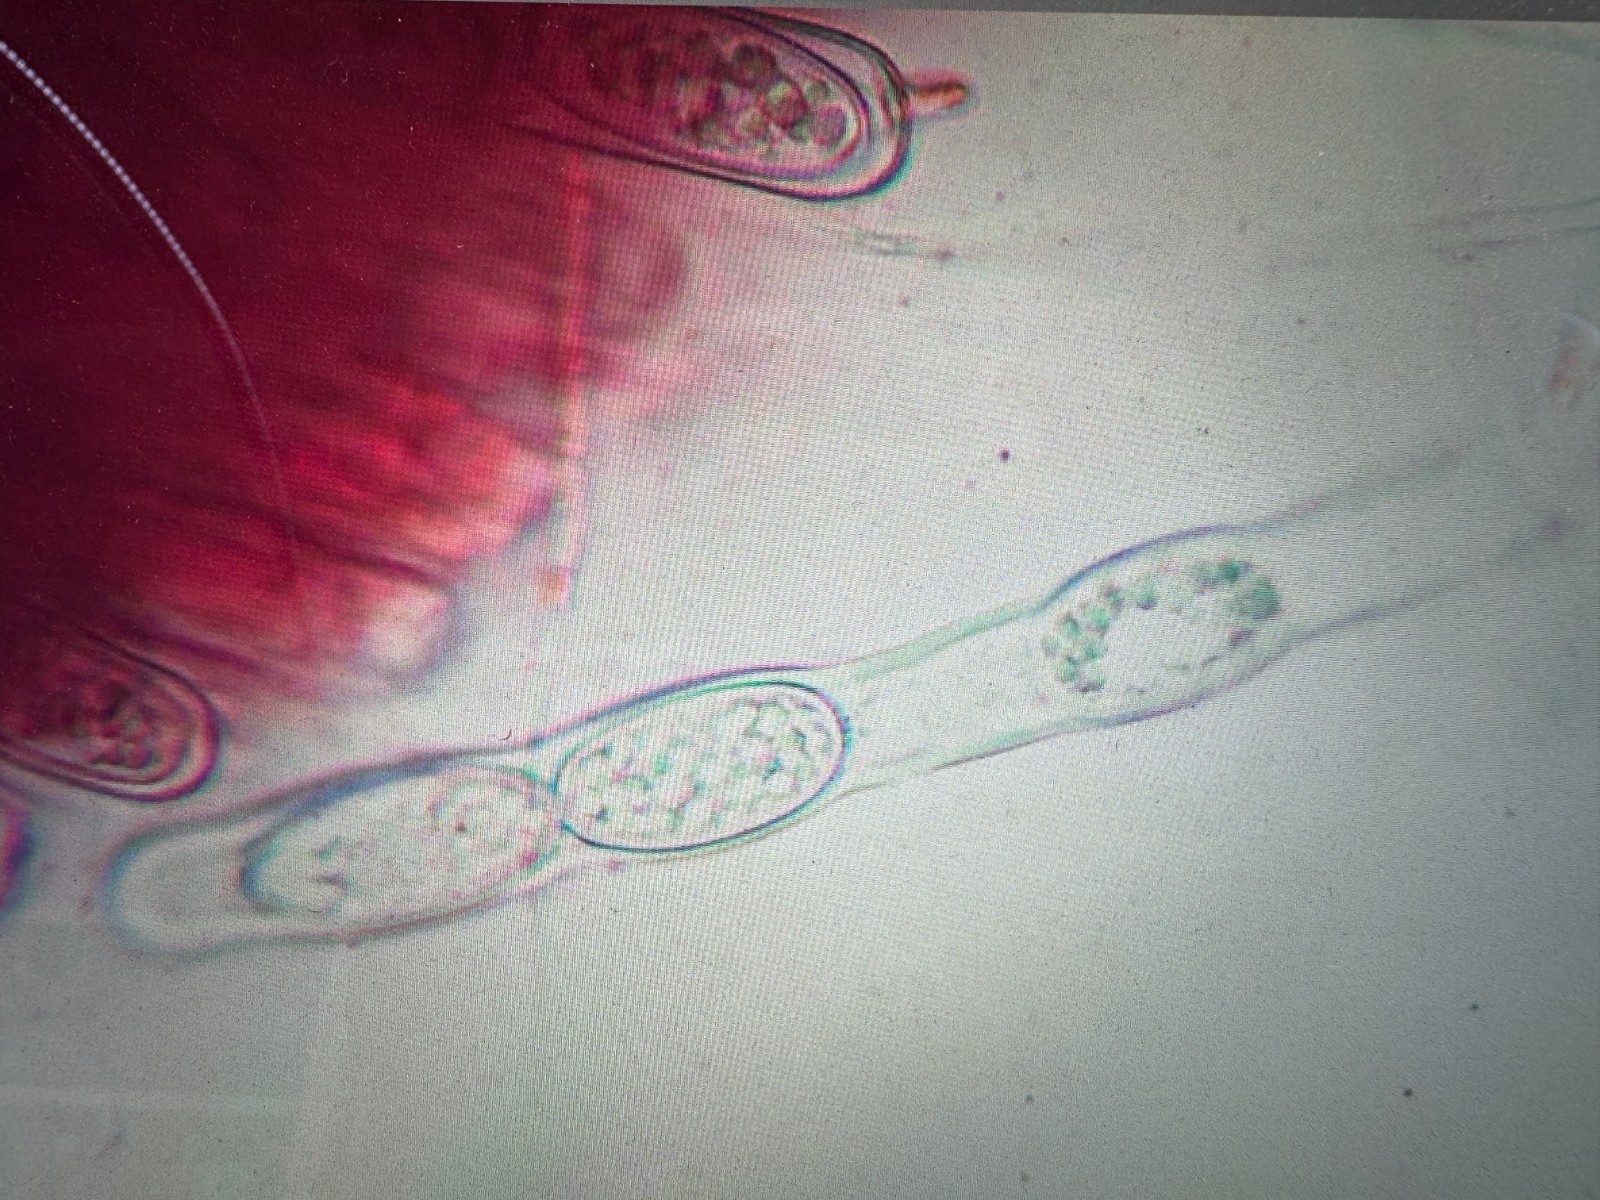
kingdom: Fungi
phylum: Ascomycota
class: Pezizomycetes
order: Pezizales
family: Sarcoscyphaceae
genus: Sarcoscypha
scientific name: Sarcoscypha austriaca
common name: krølhåret pragtbæger
